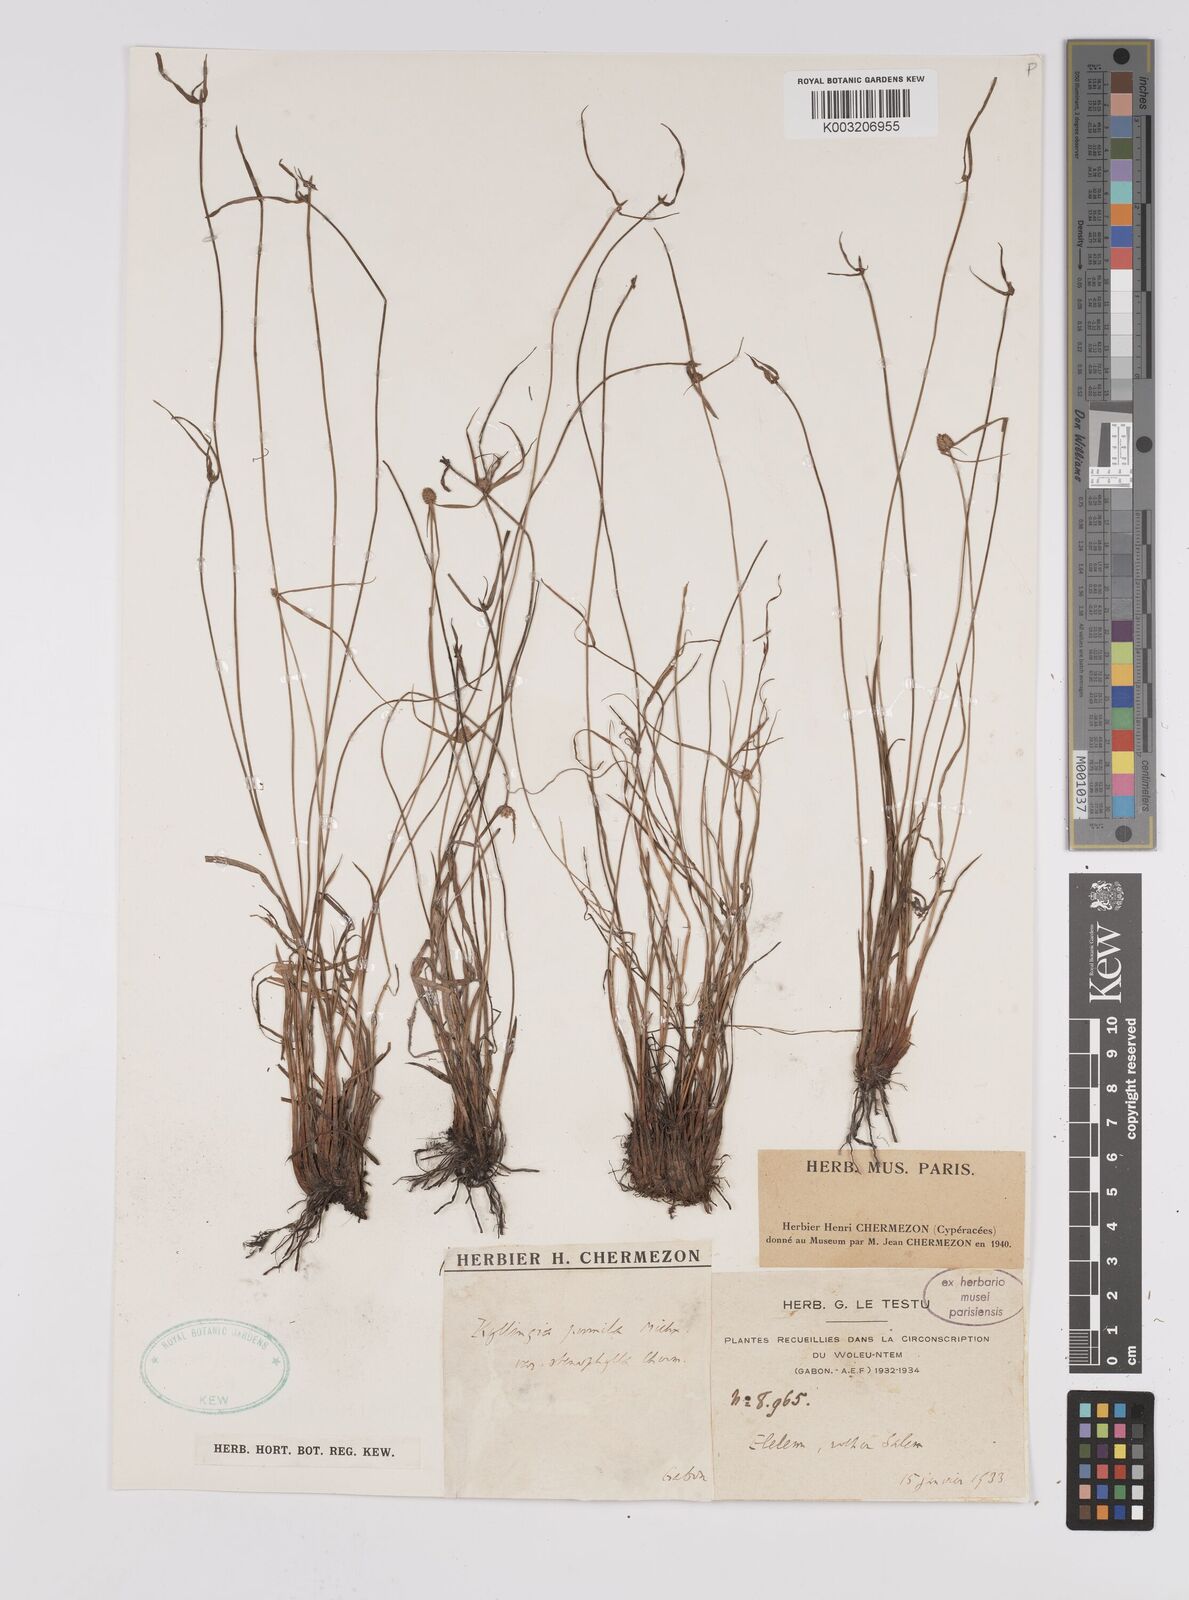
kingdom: Plantae
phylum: Tracheophyta
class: Liliopsida
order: Poales
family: Cyperaceae
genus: Cyperus
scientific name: Cyperus
